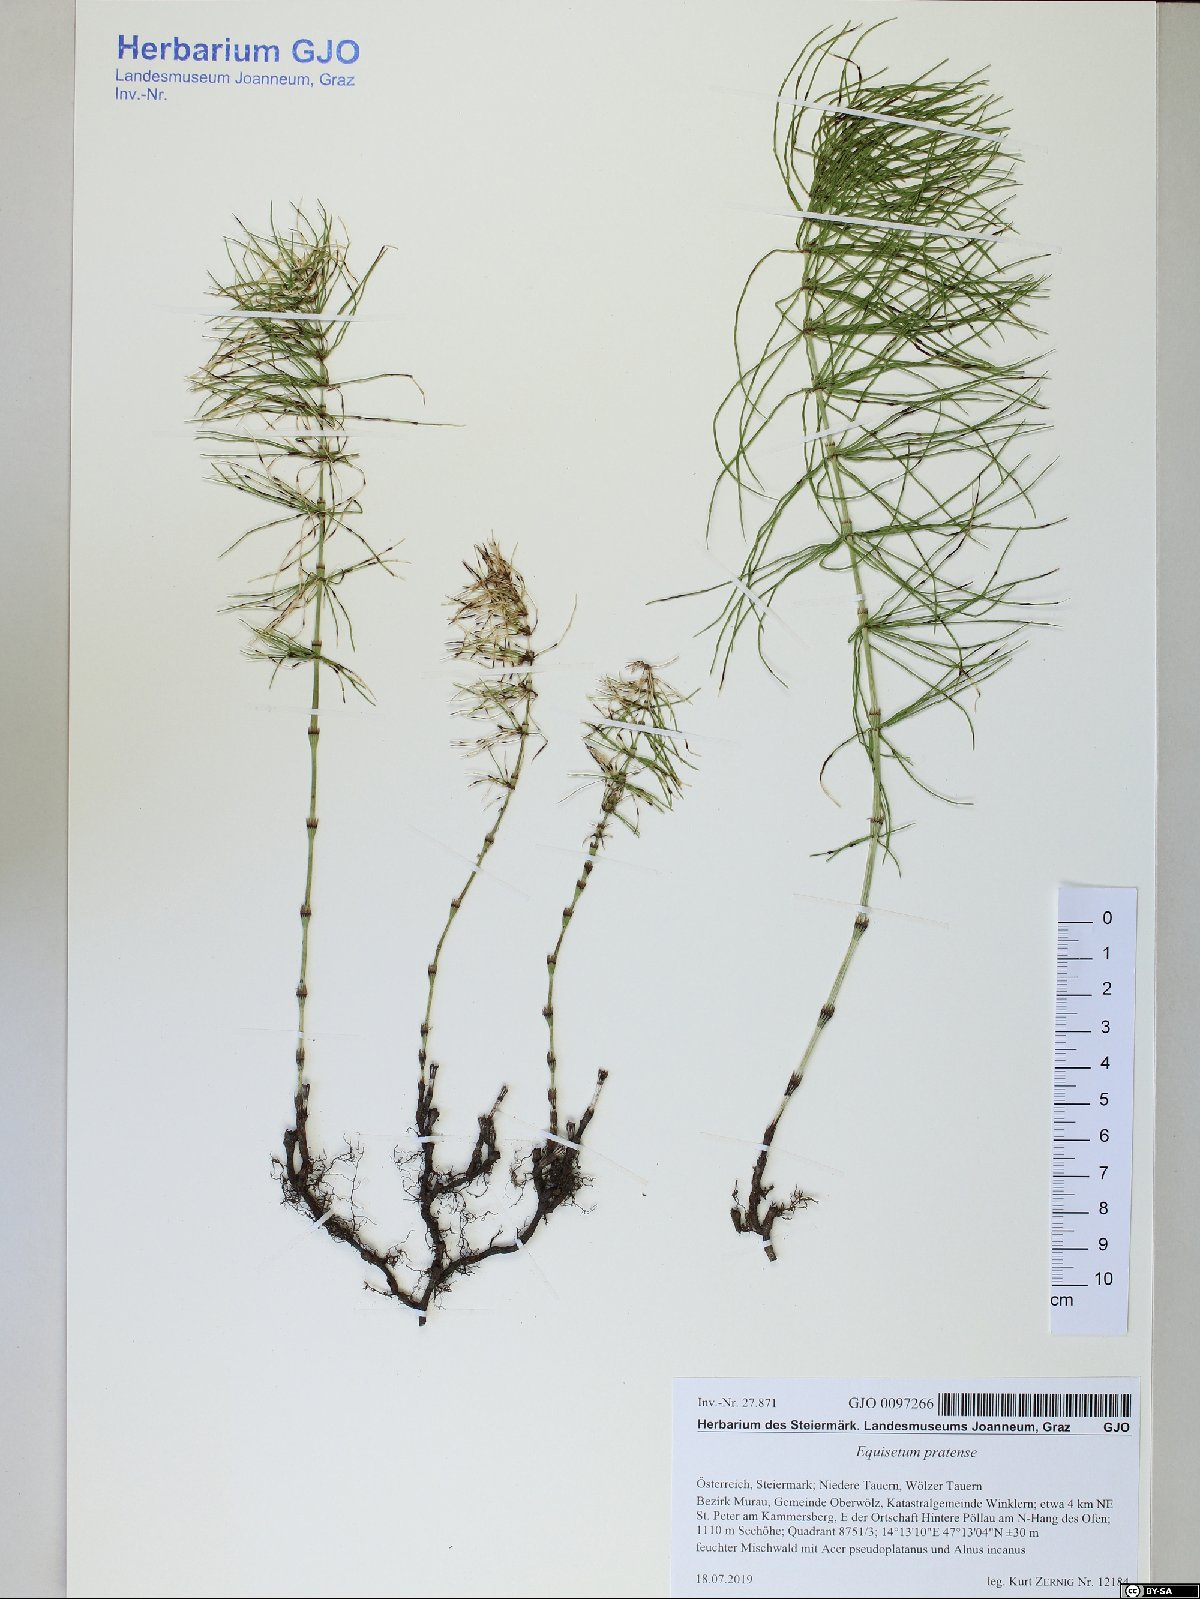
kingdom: Plantae
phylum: Tracheophyta
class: Polypodiopsida
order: Equisetales
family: Equisetaceae
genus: Equisetum
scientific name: Equisetum pratense
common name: Meadow horsetail
